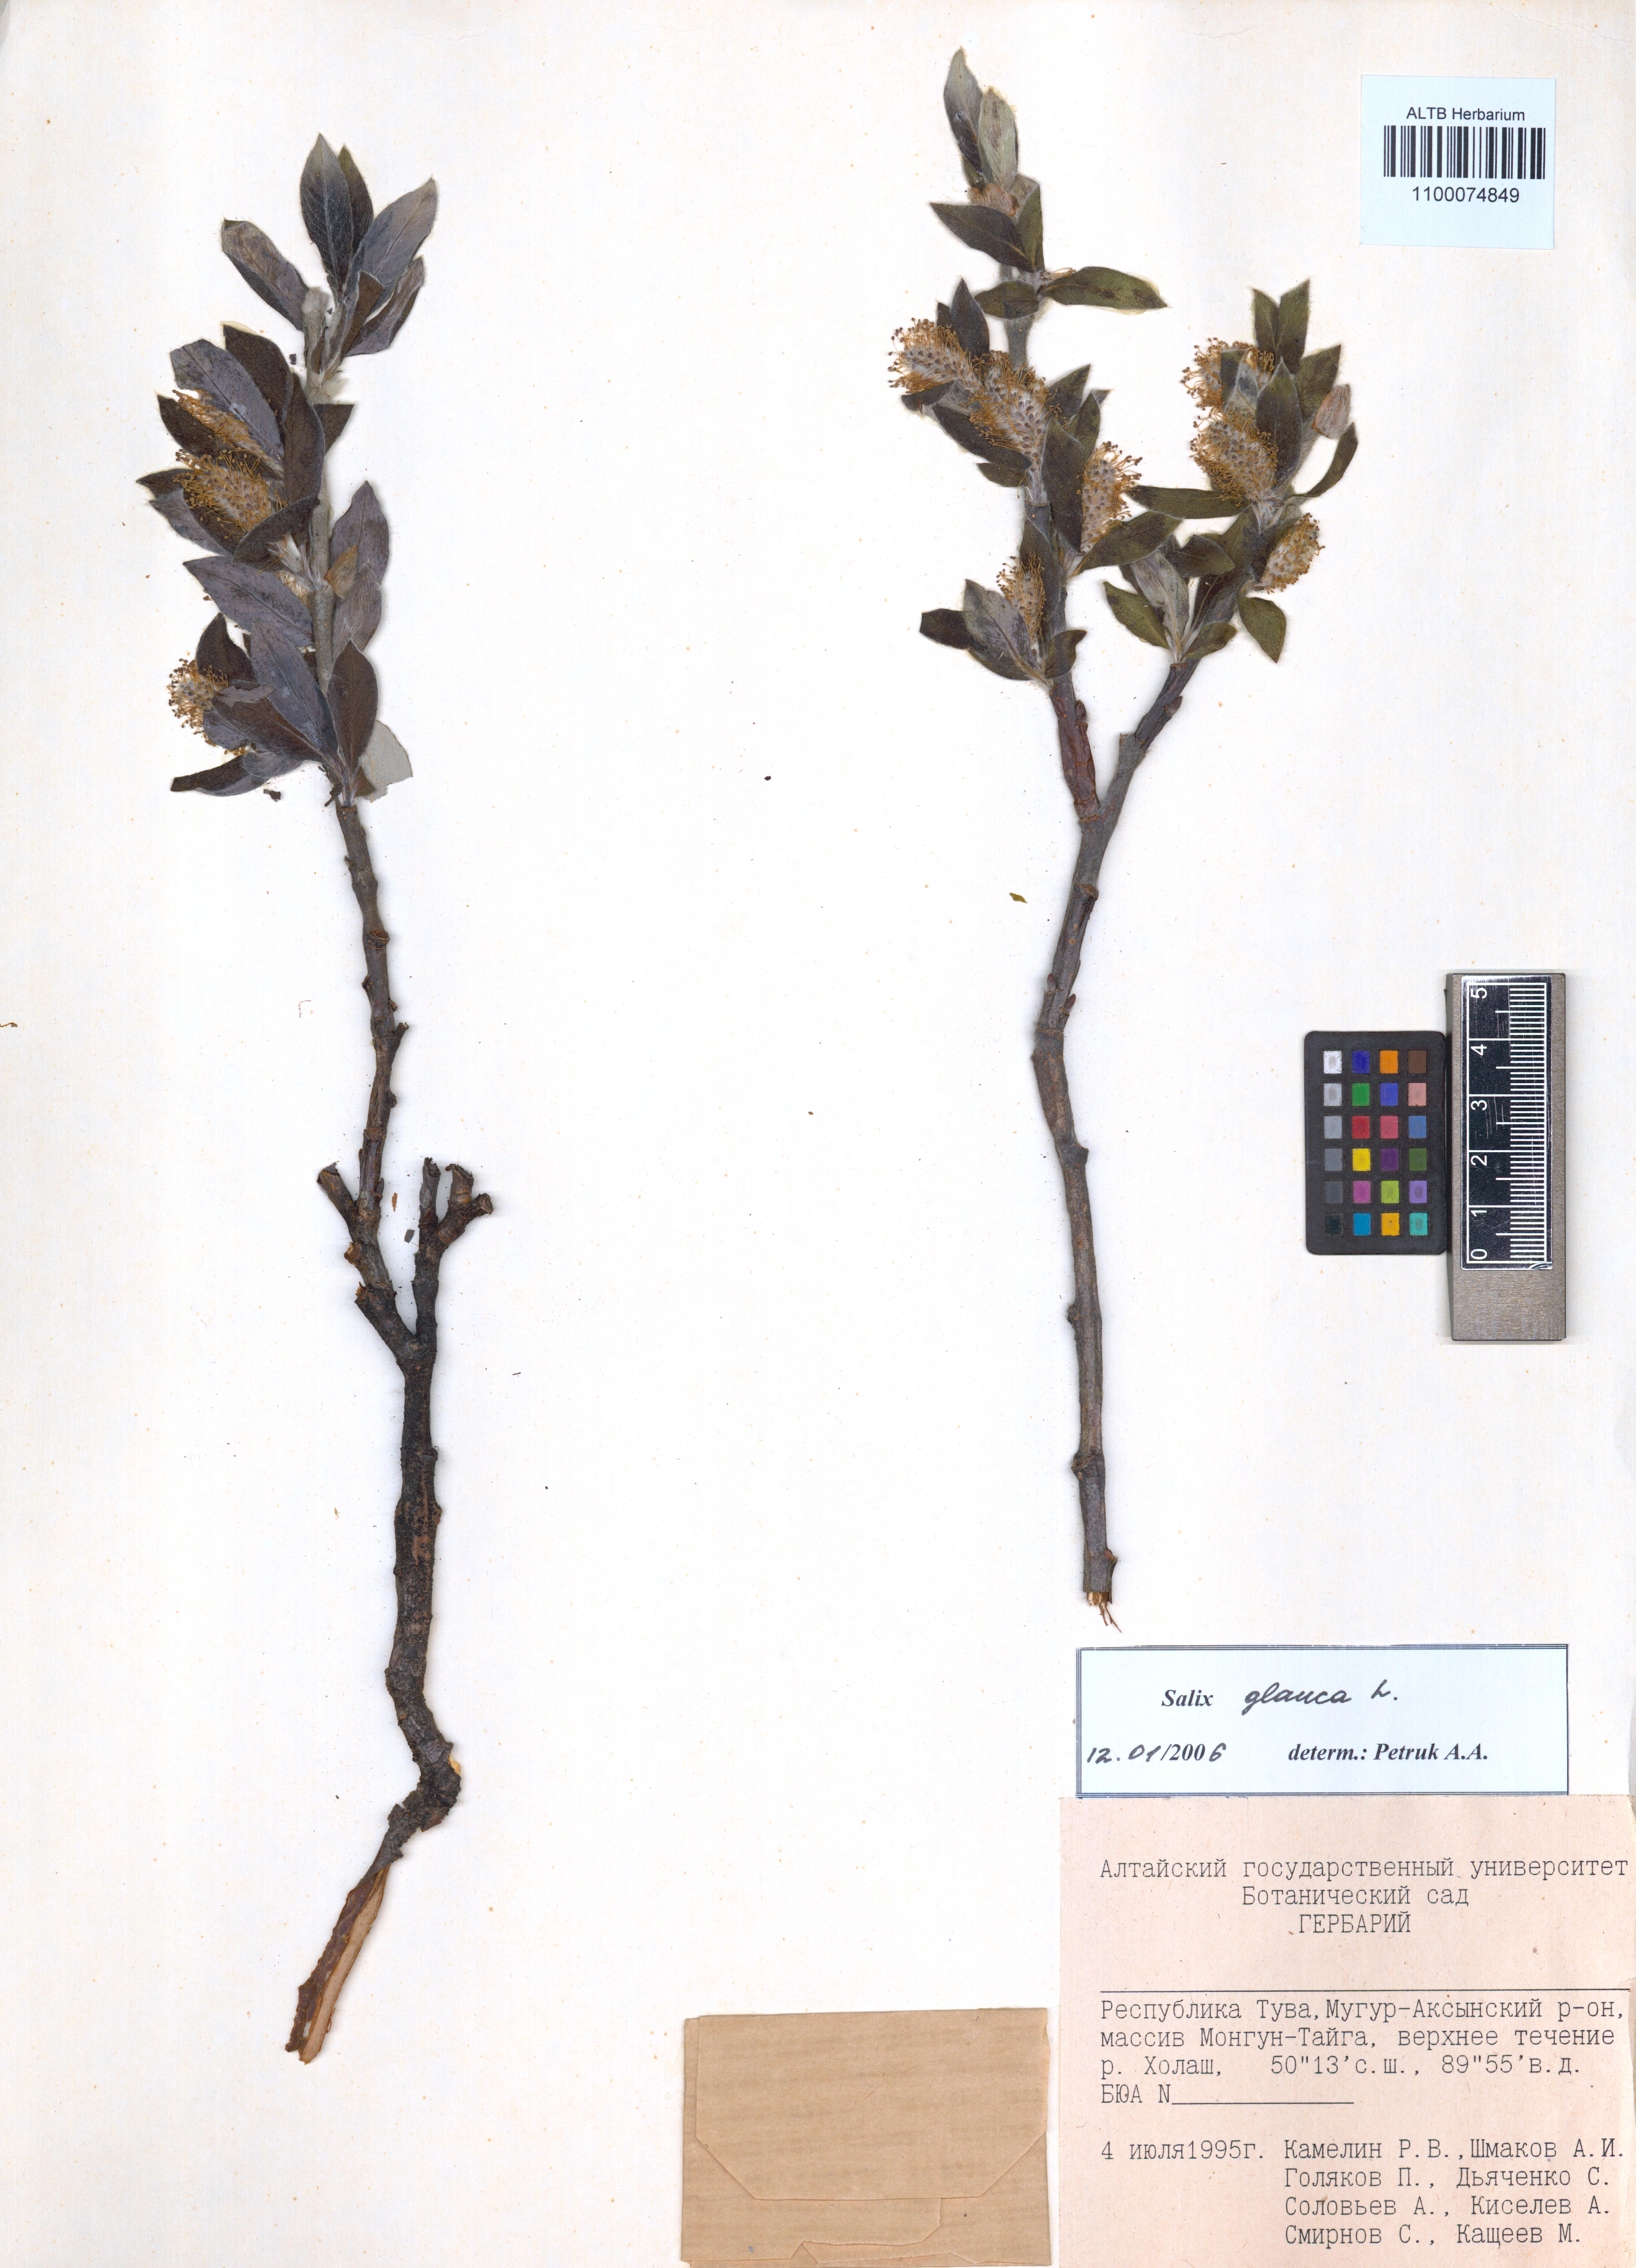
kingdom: Plantae
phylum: Tracheophyta
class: Magnoliopsida
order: Malpighiales
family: Salicaceae
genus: Salix
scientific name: Salix glauca
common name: Glaucous willow
